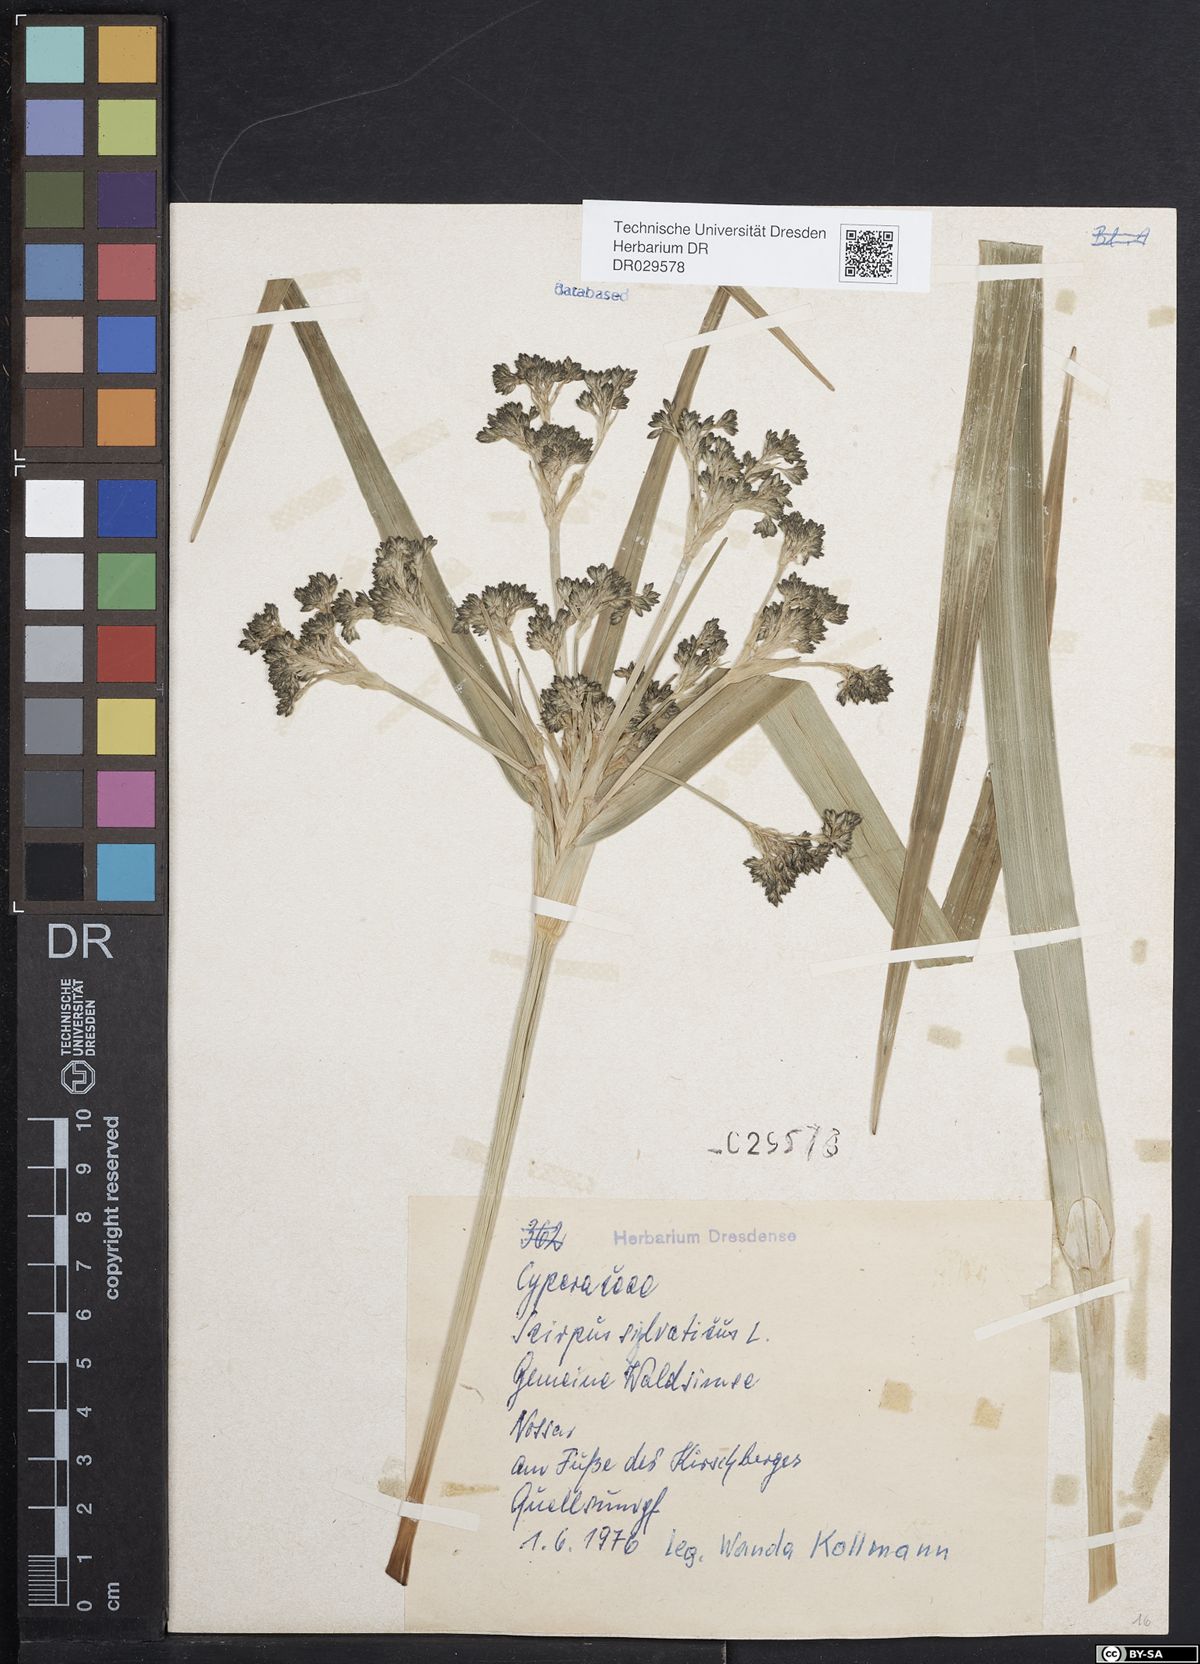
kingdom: Plantae
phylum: Tracheophyta
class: Liliopsida
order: Poales
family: Cyperaceae
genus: Scirpus
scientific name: Scirpus sylvaticus
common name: Wood club-rush
